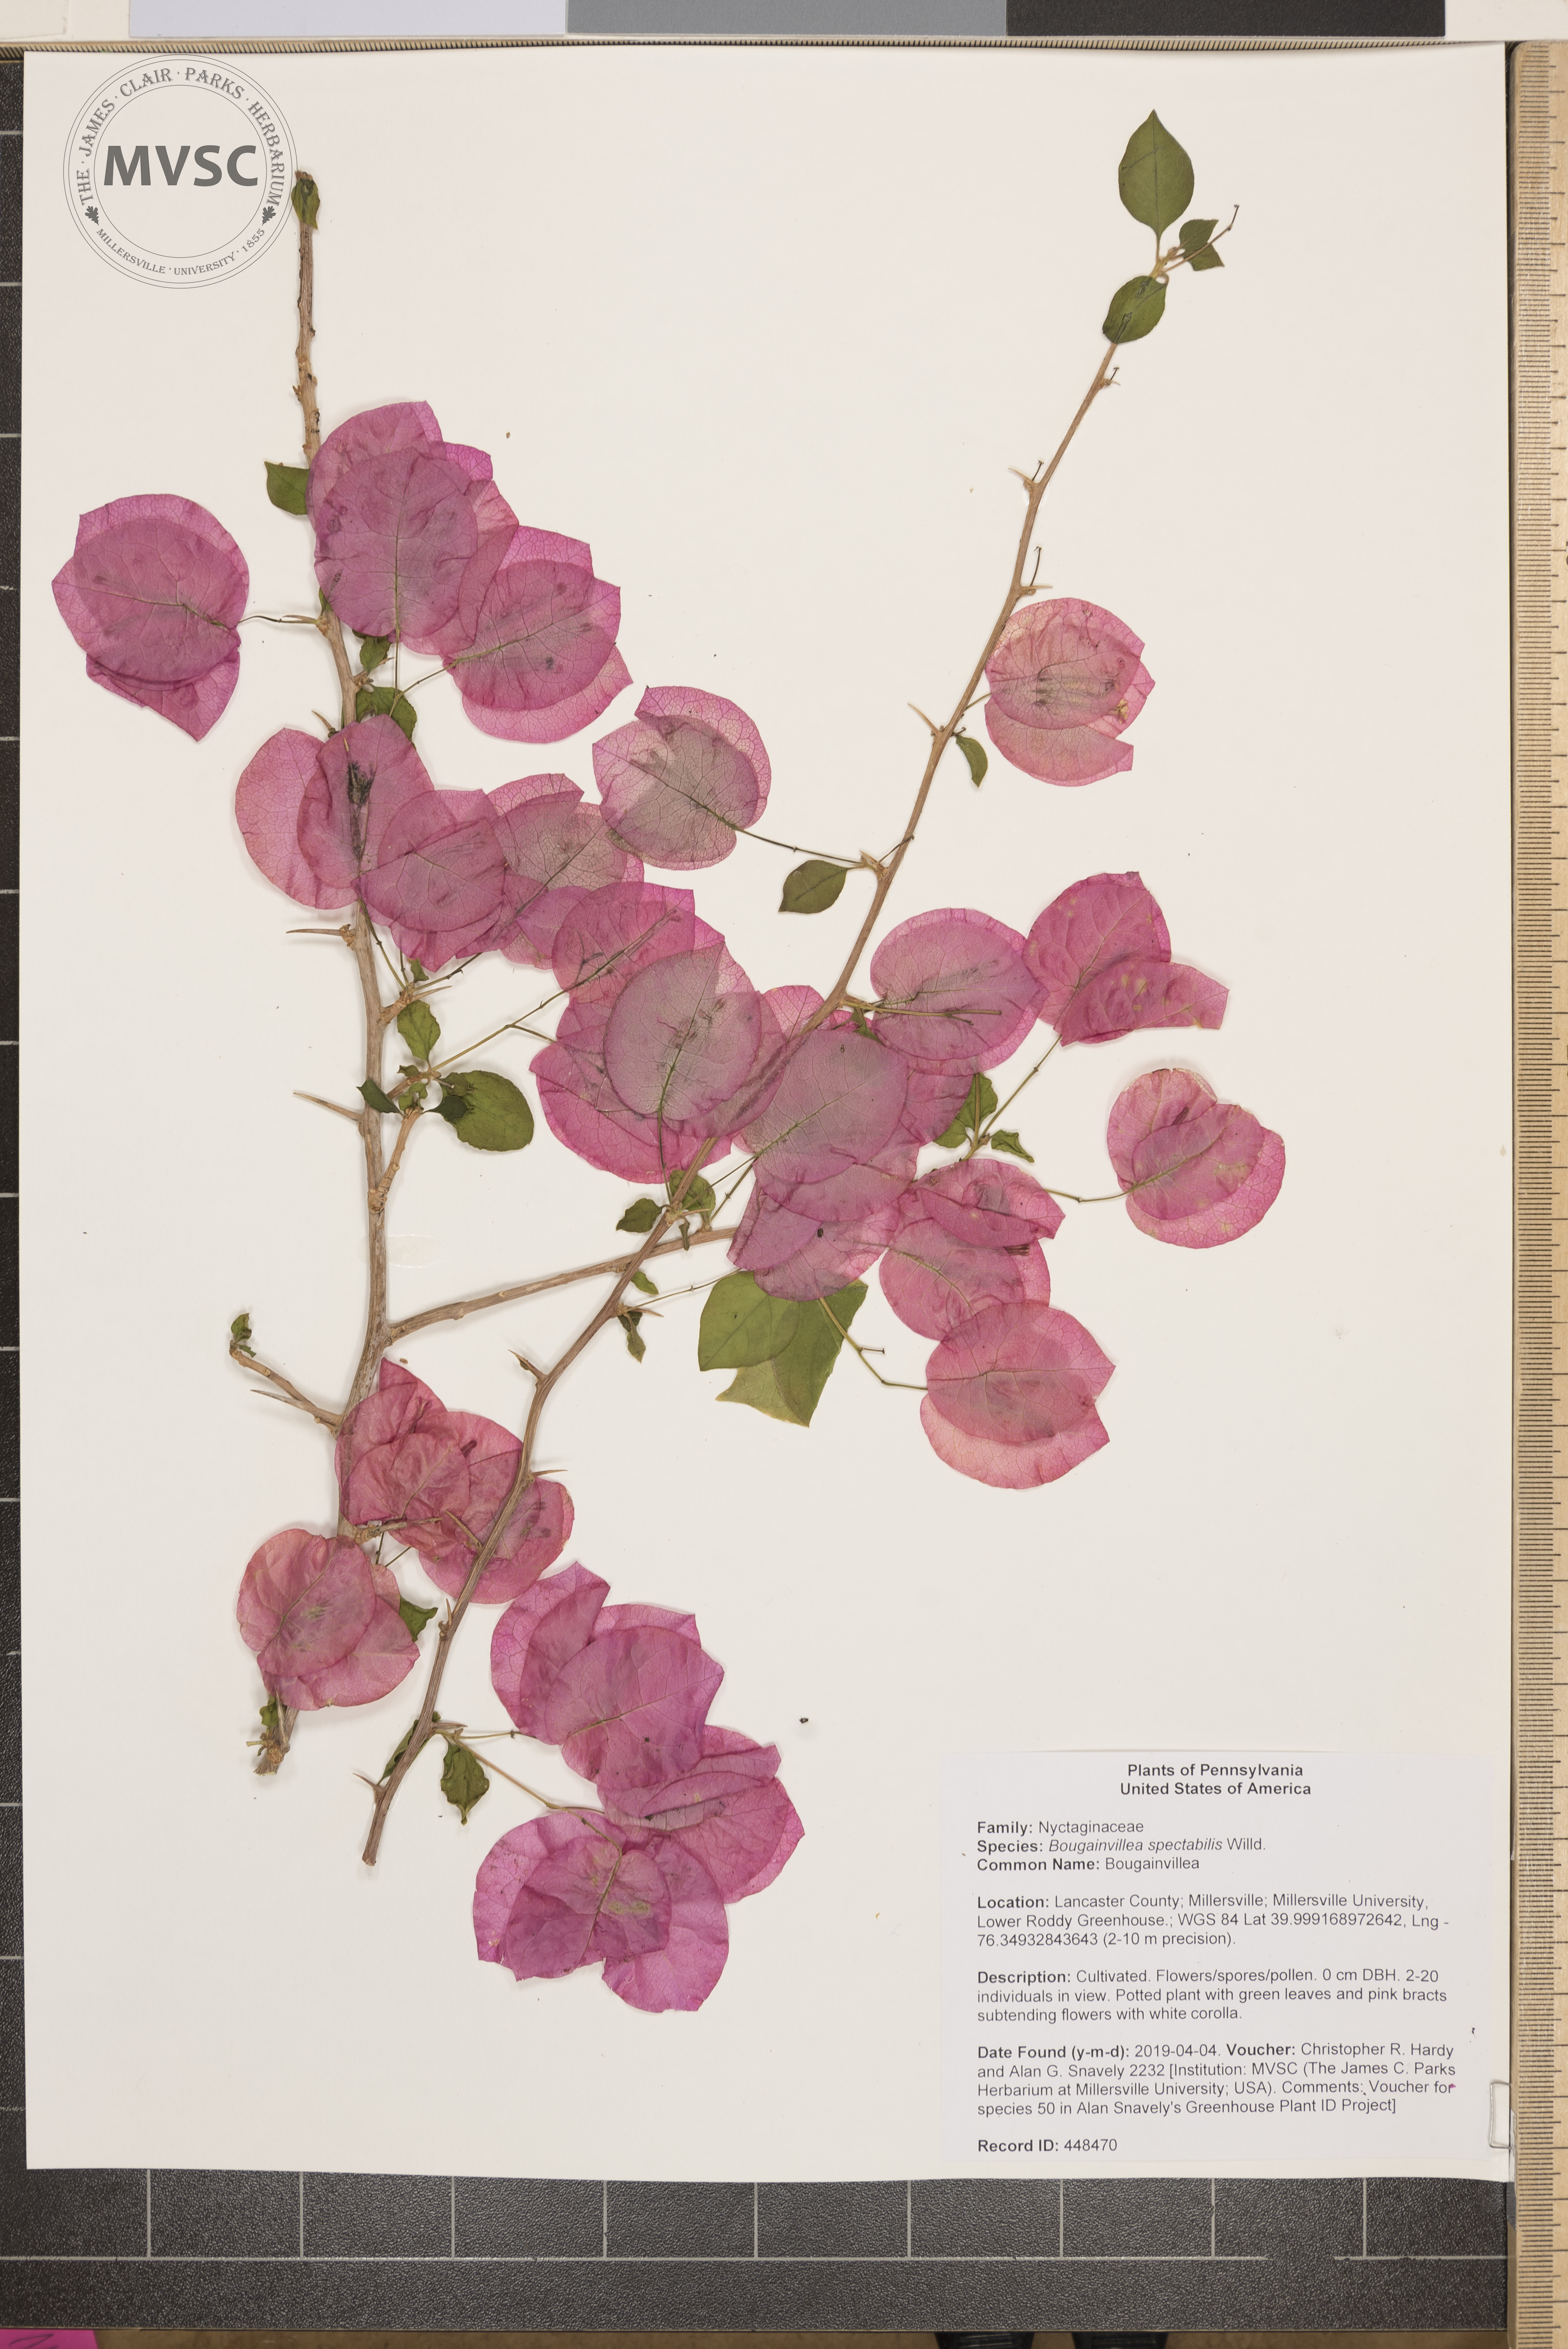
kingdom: Plantae
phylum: Tracheophyta
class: Magnoliopsida
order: Caryophyllales
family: Nyctaginaceae
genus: Bougainvillea
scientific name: Bougainvillea spectabilis
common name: Bougainvillea
